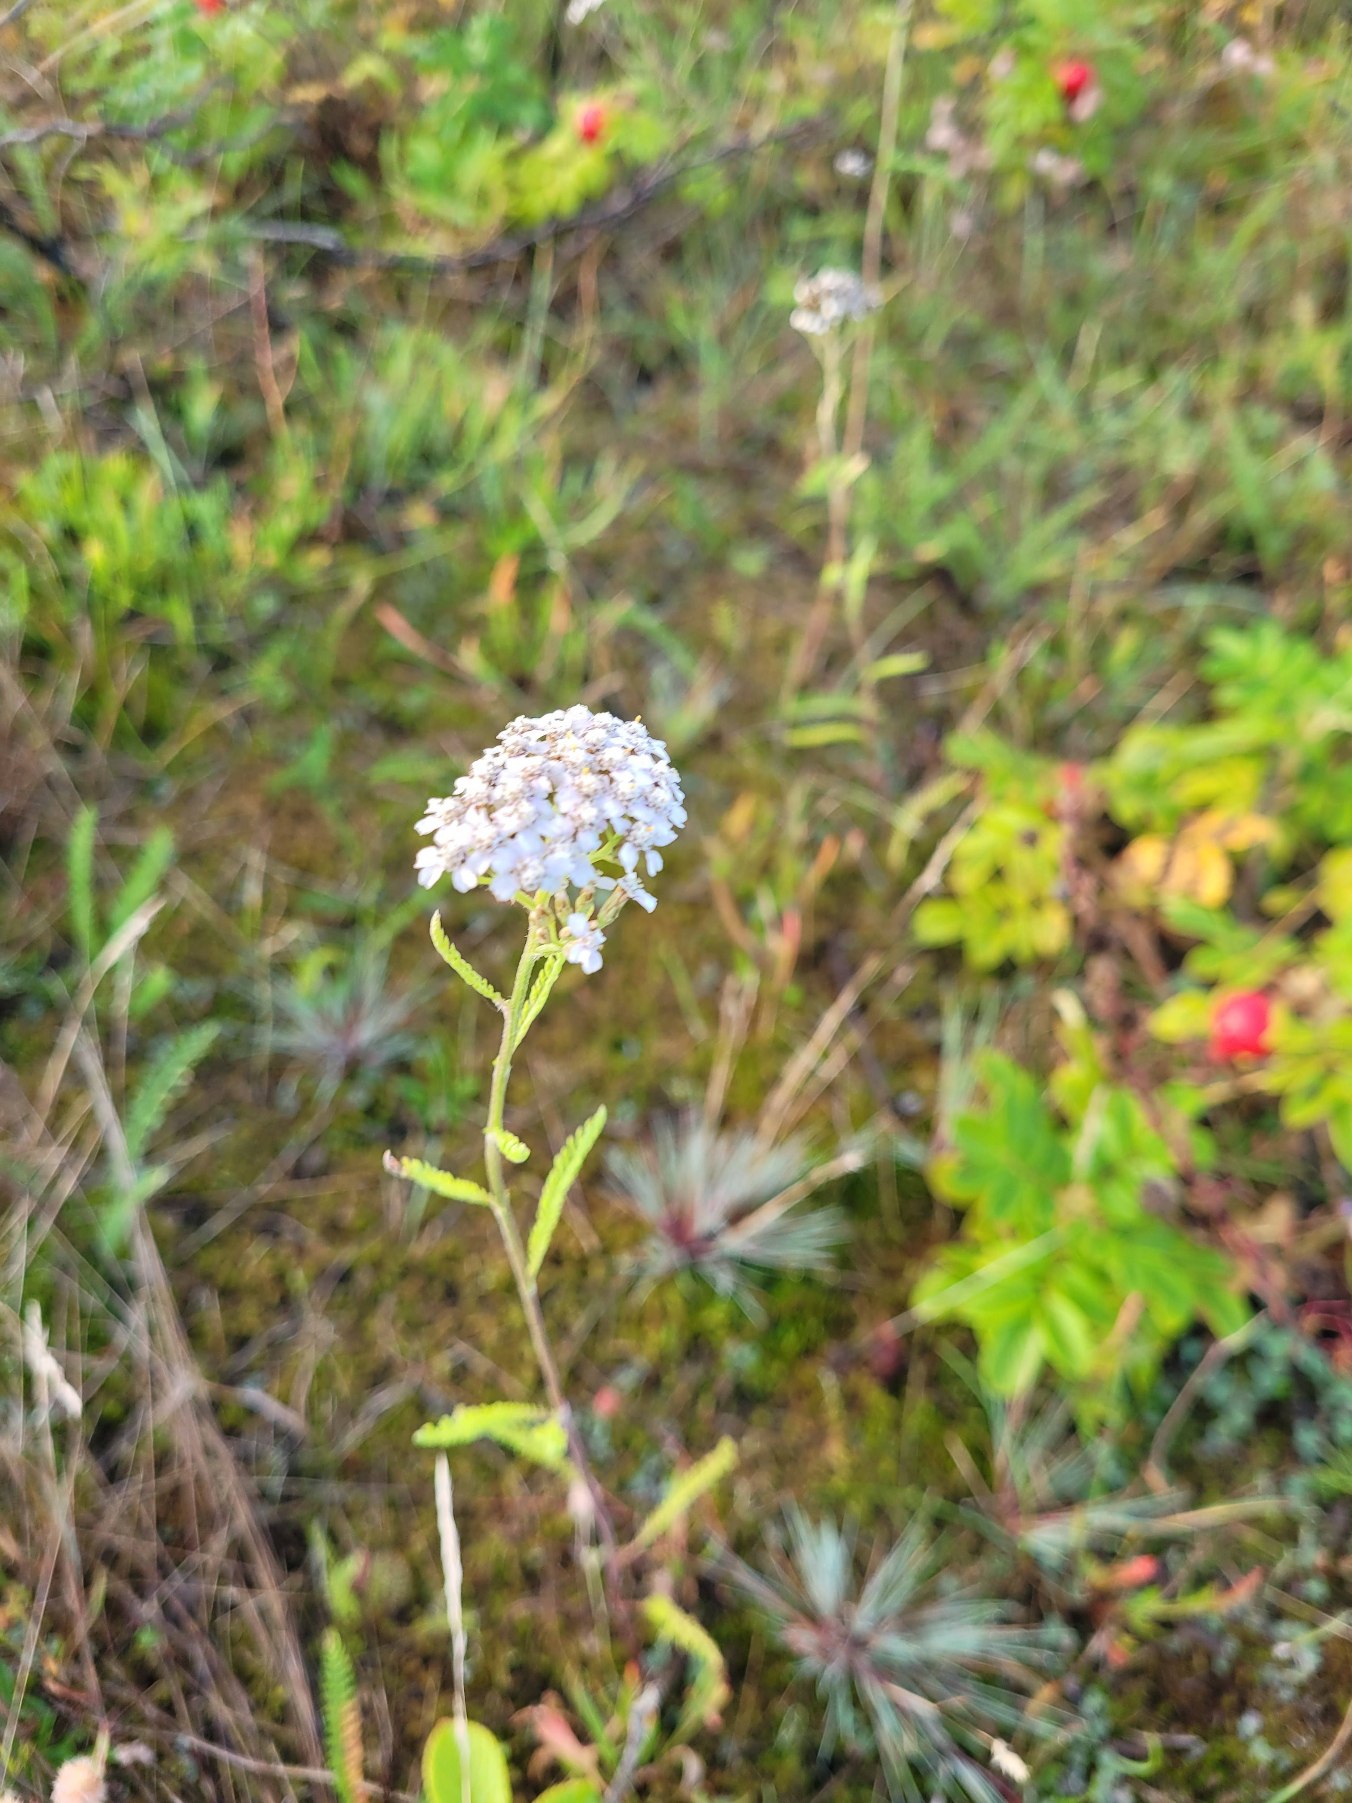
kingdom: Plantae
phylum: Tracheophyta
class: Magnoliopsida
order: Asterales
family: Asteraceae
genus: Achillea
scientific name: Achillea millefolium
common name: Almindelig røllike
